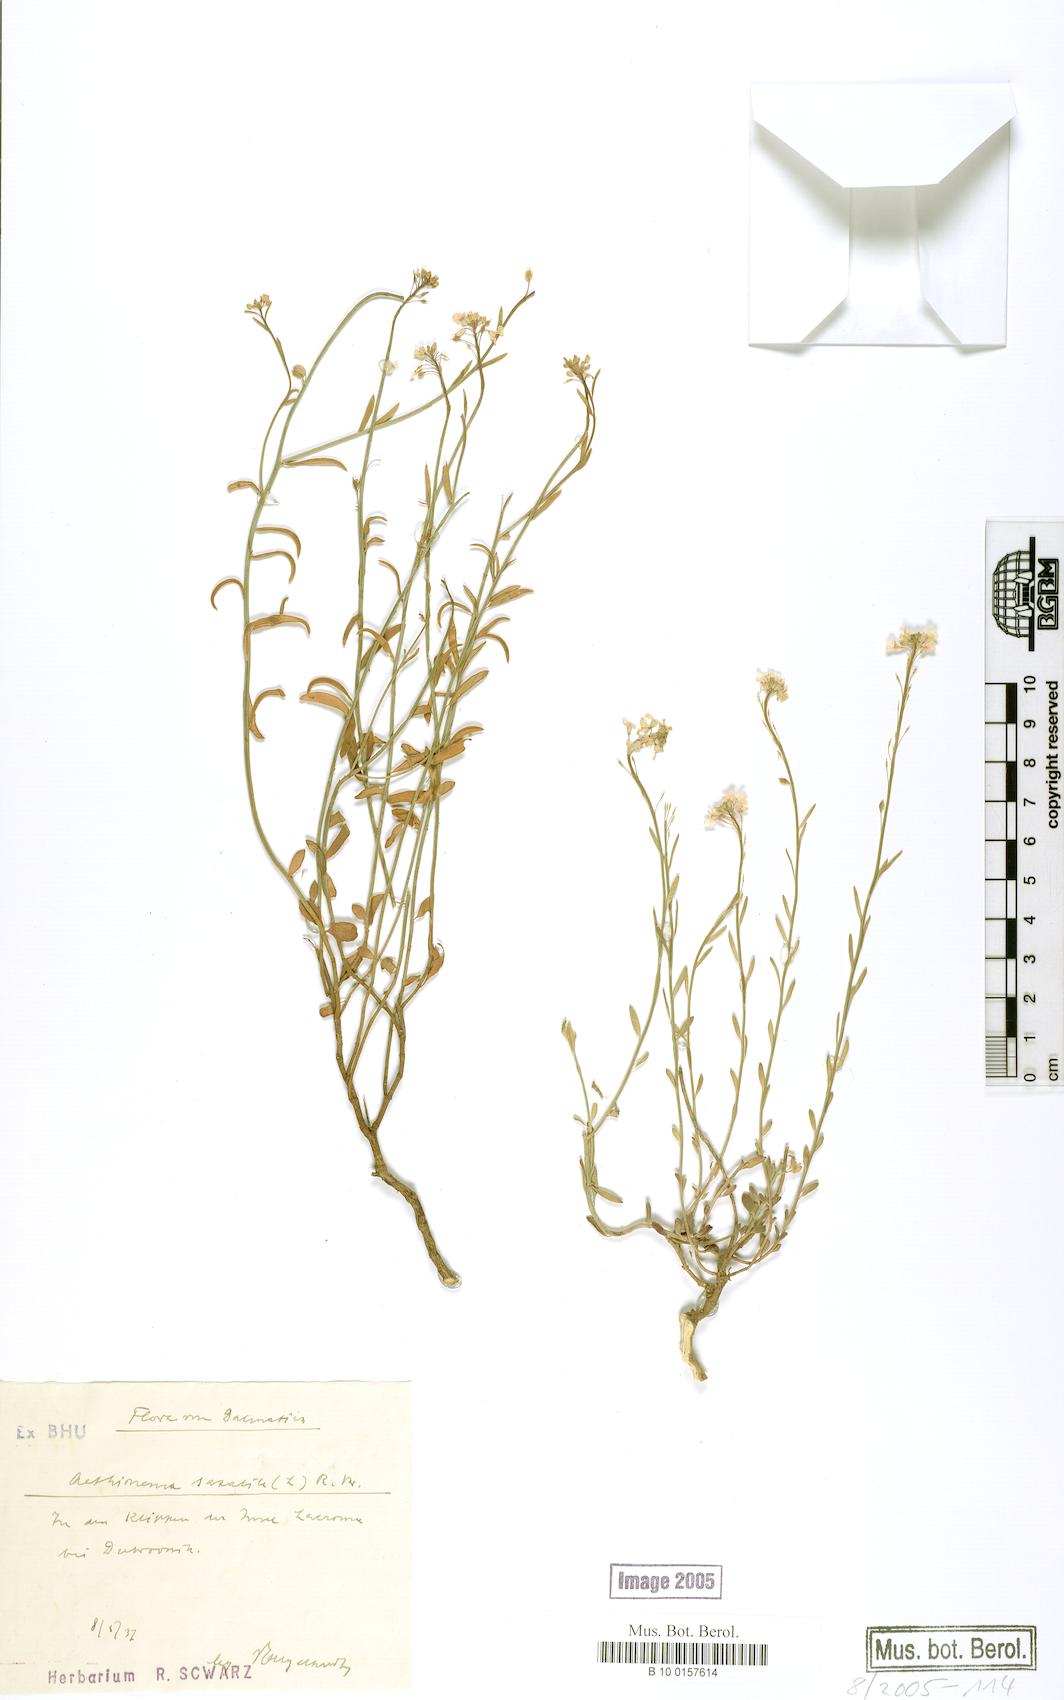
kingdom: Plantae
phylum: Tracheophyta
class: Magnoliopsida
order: Brassicales
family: Brassicaceae
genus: Aethionema
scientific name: Aethionema saxatile
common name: Burnt candytuft
